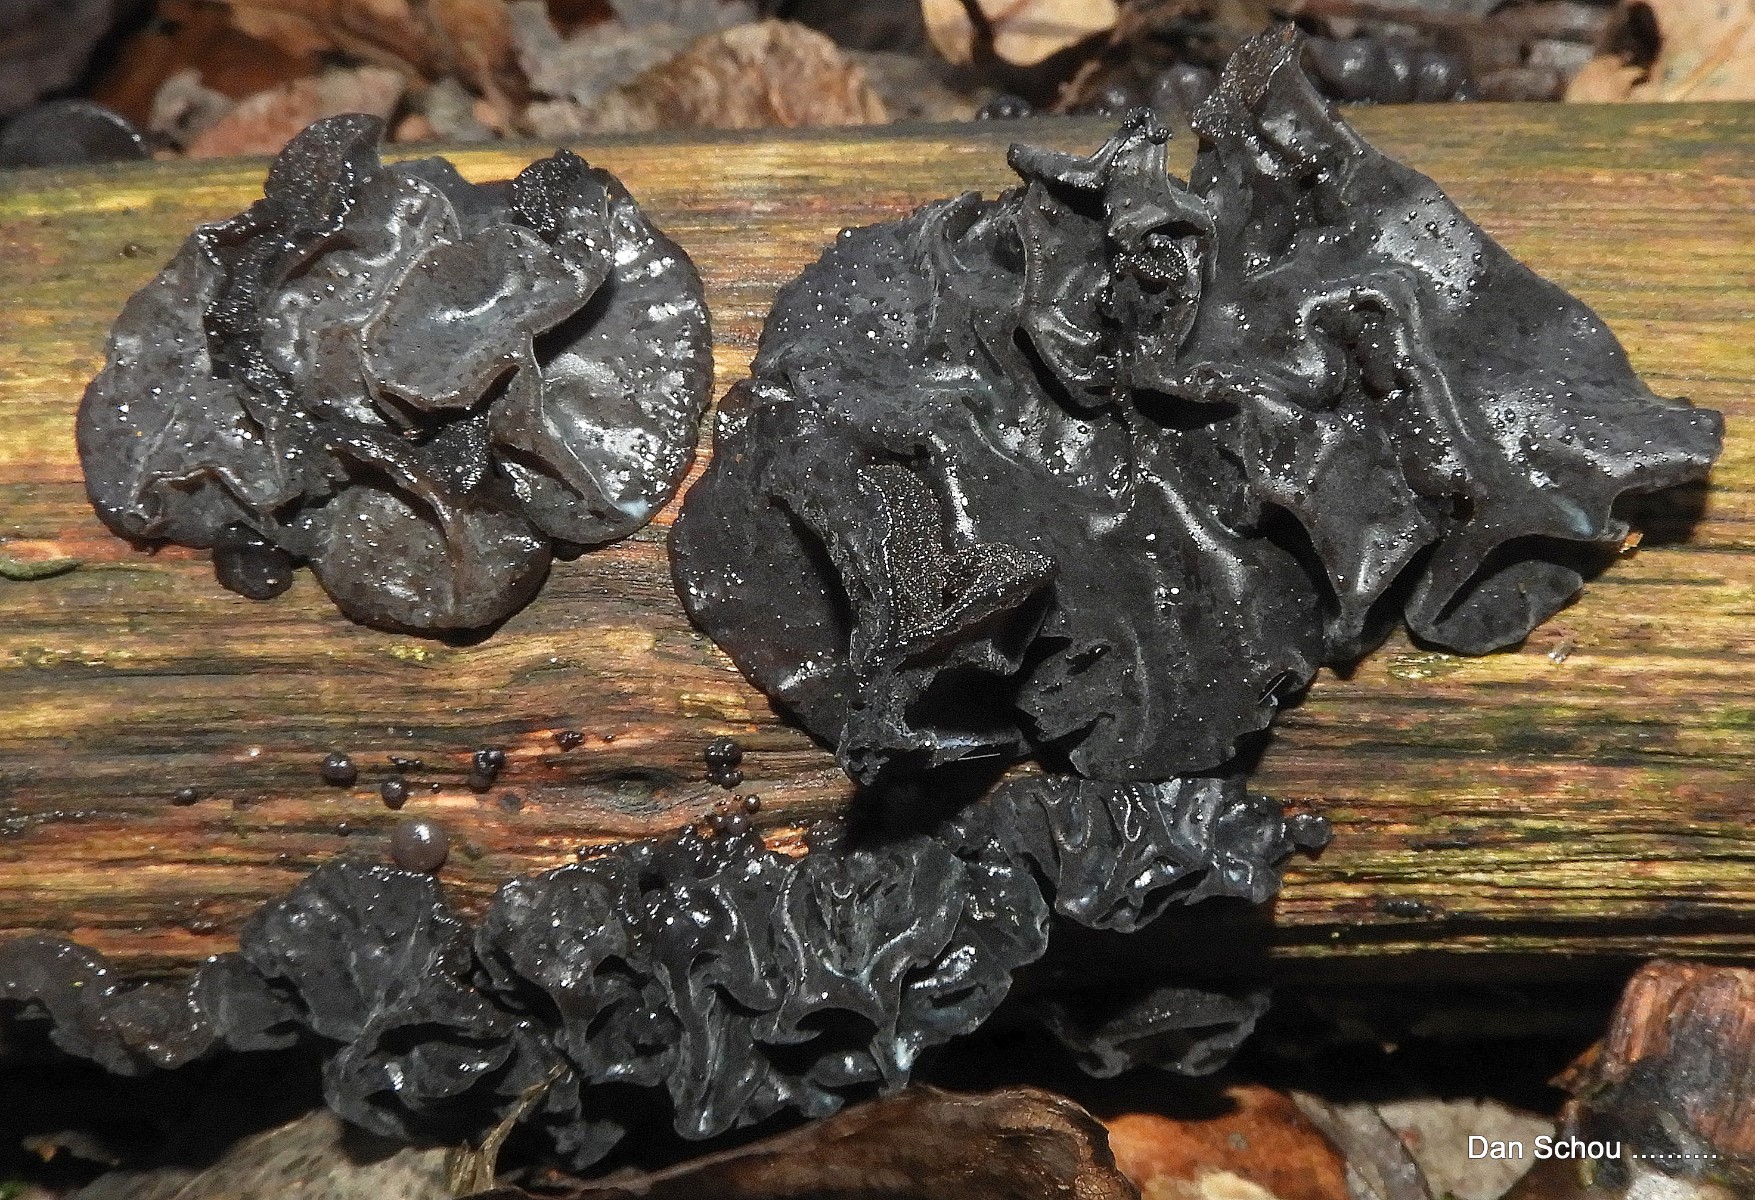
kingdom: Fungi
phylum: Basidiomycota
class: Agaricomycetes
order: Auriculariales
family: Auriculariaceae
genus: Exidia
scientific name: Exidia glandulosa
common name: ege-bævretop
